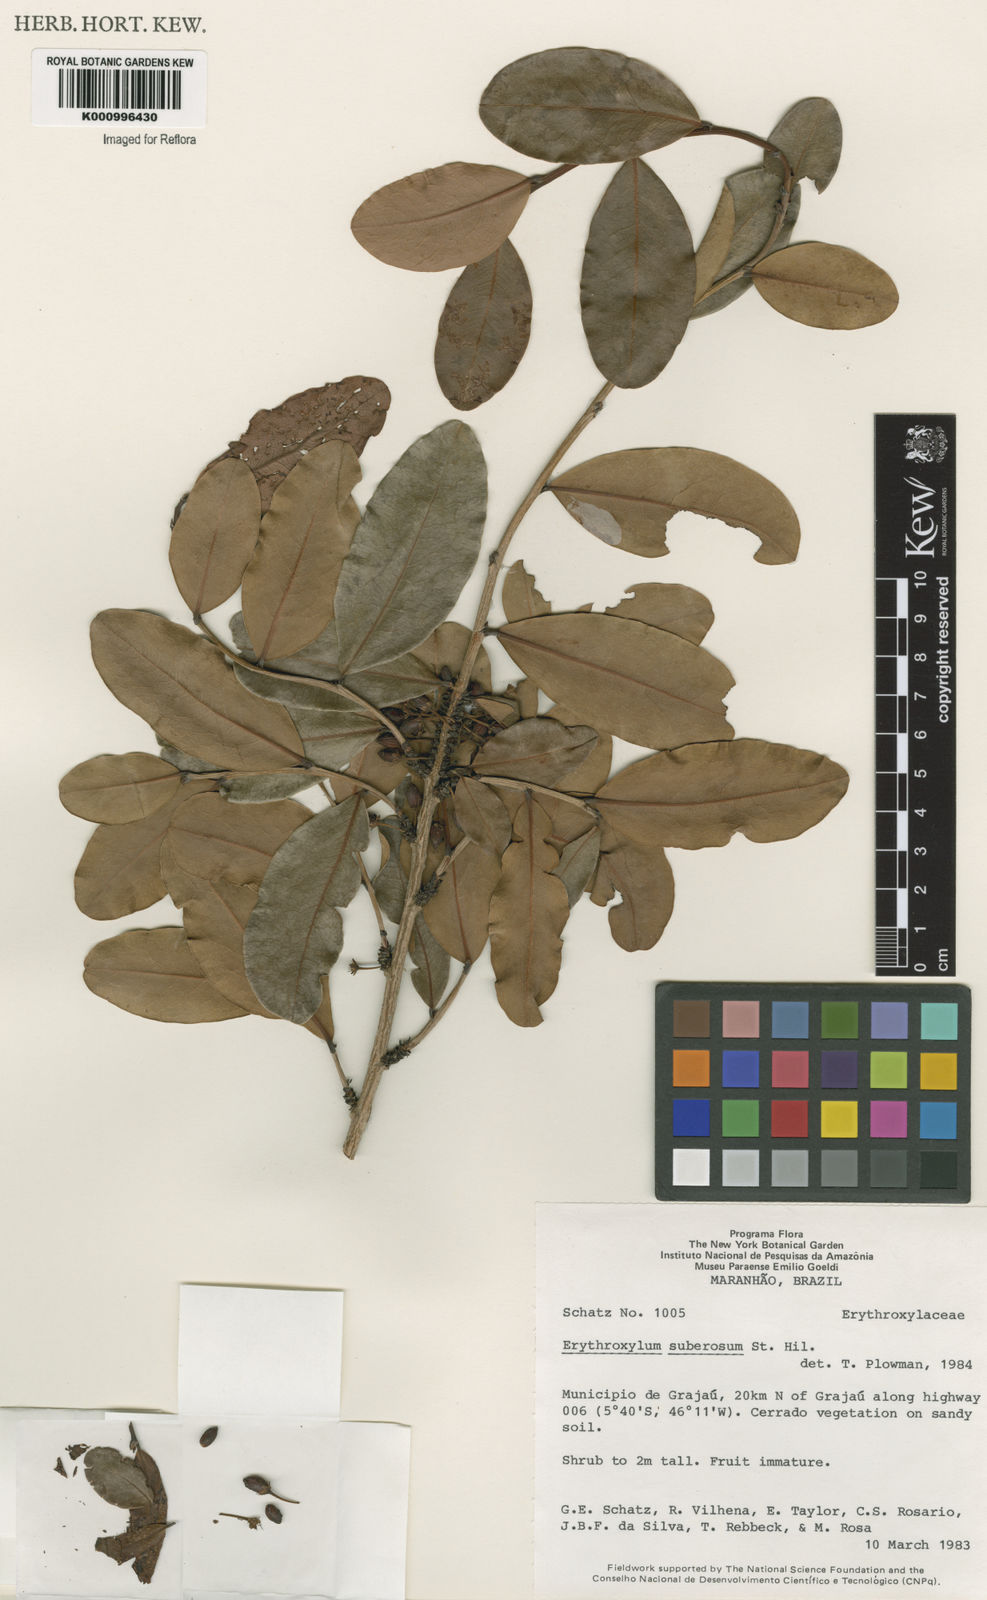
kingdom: Plantae
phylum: Tracheophyta
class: Magnoliopsida
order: Malpighiales
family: Erythroxylaceae
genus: Erythroxylum
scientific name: Erythroxylum suberosum
